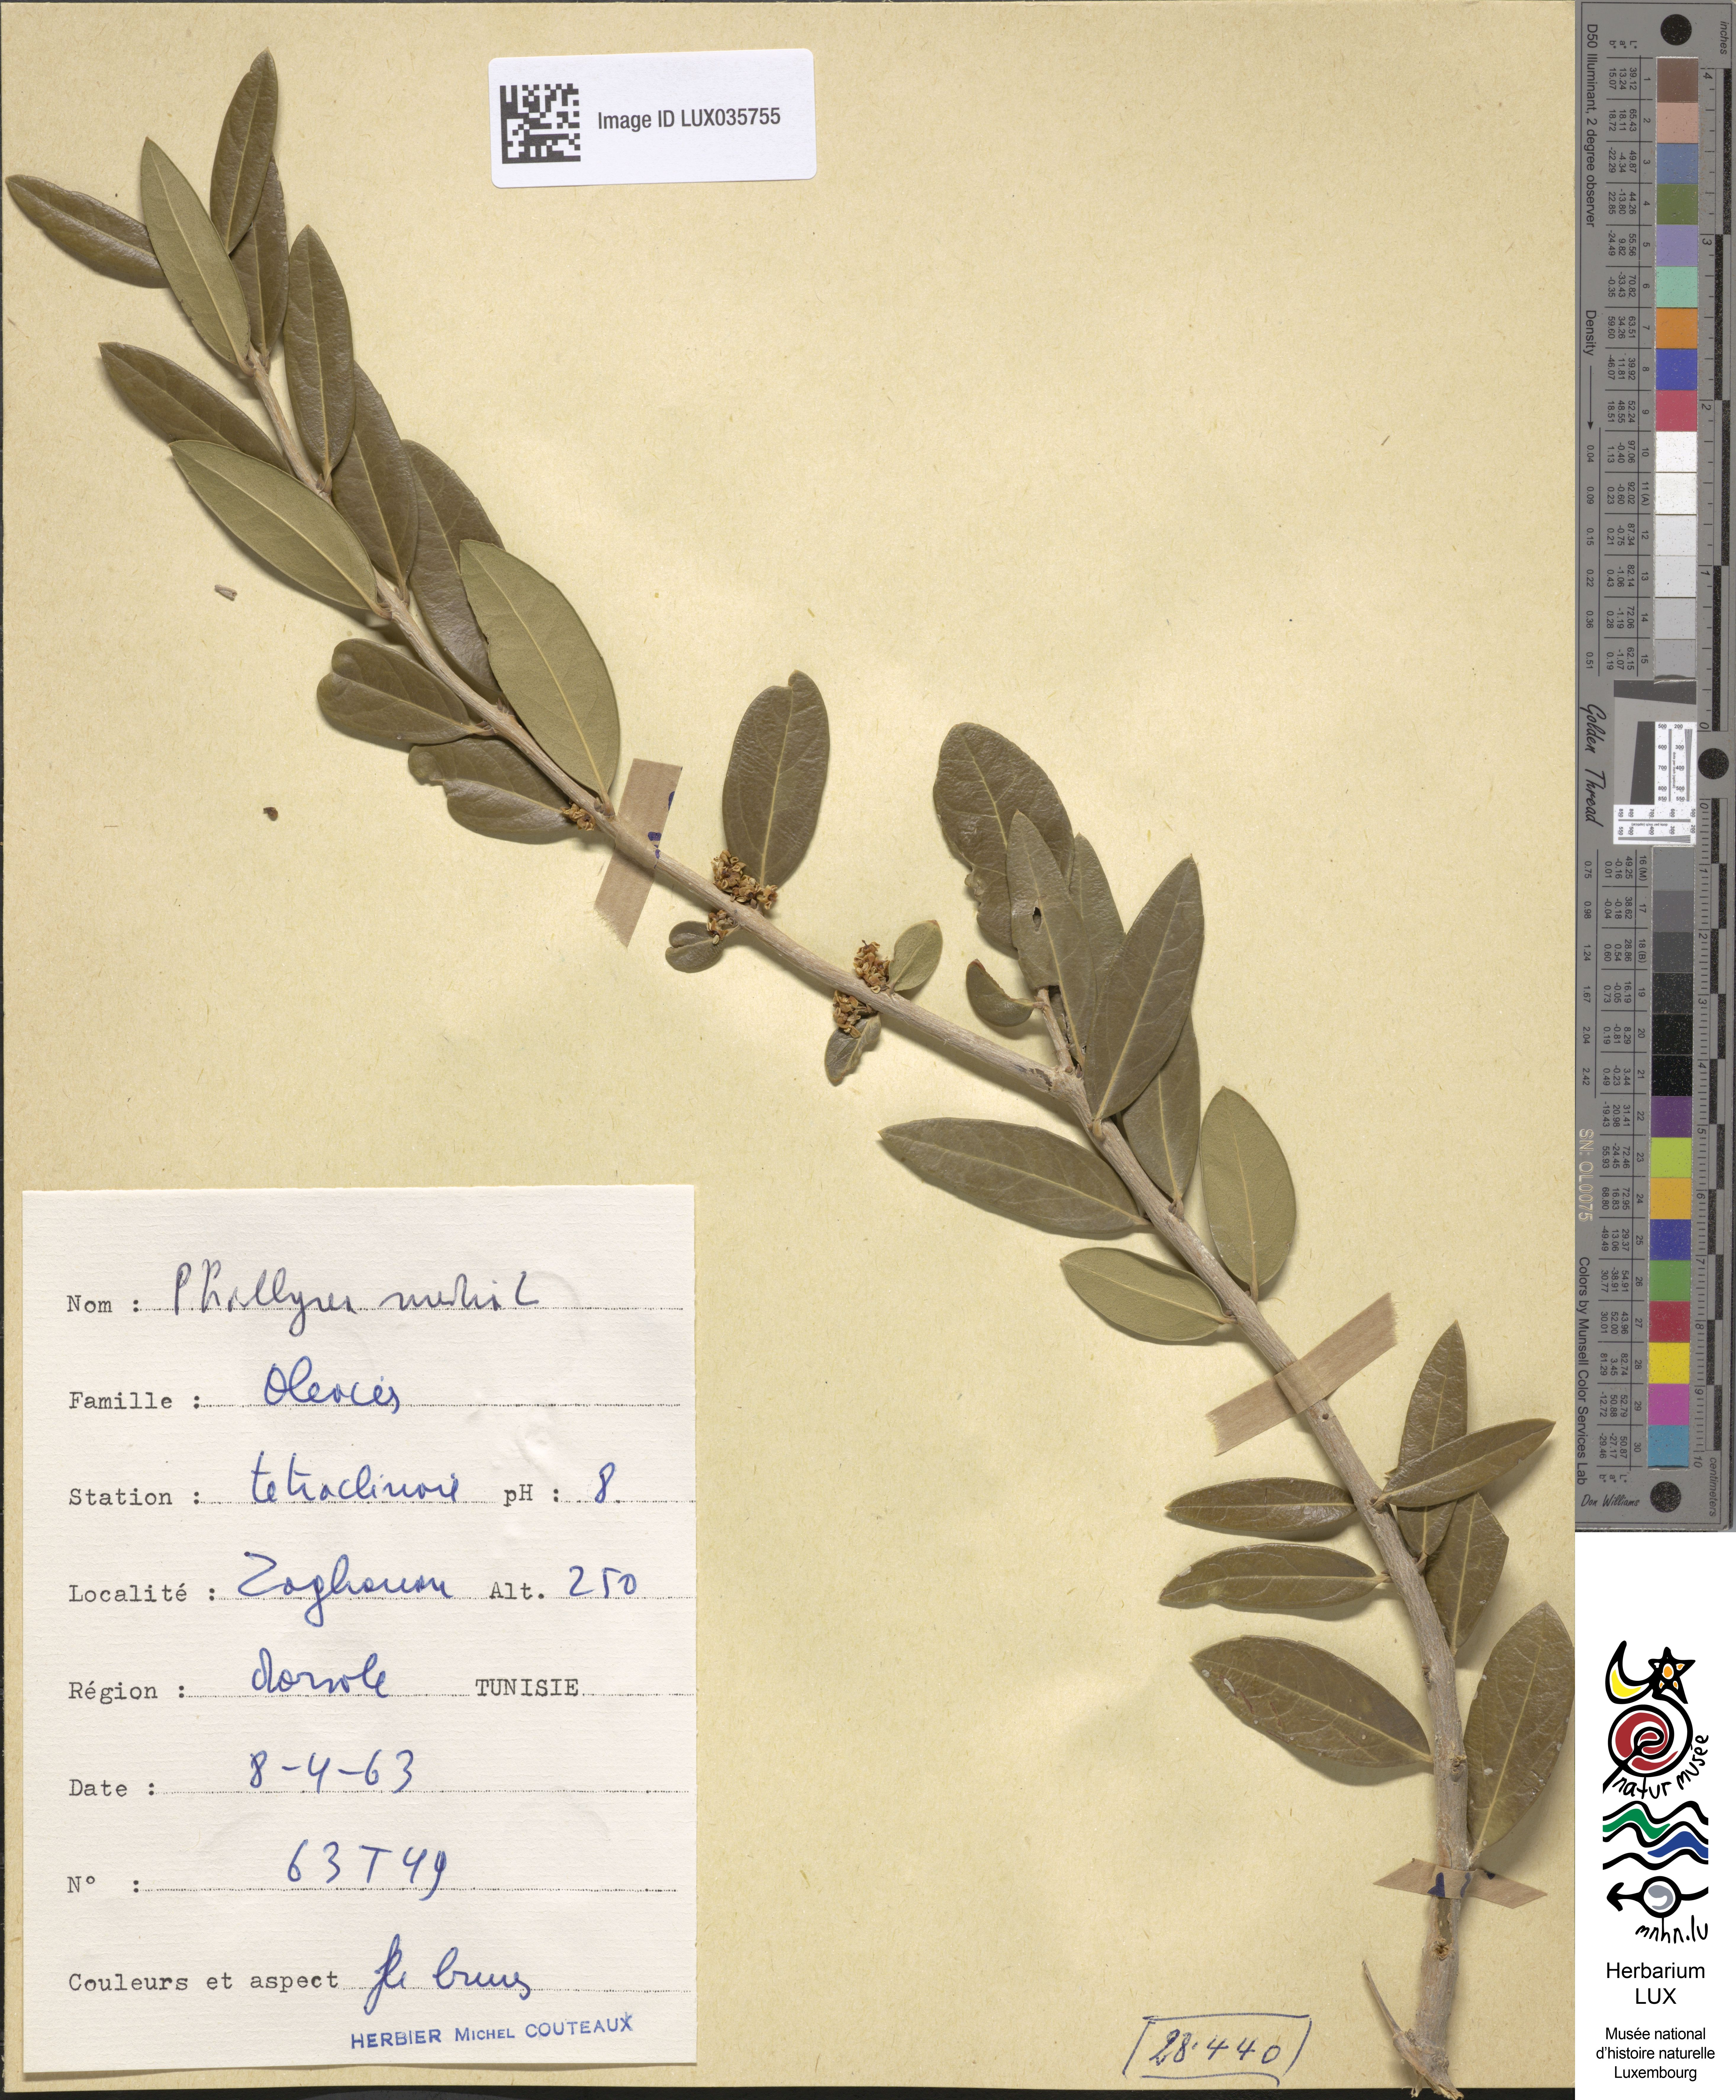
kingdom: Plantae
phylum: Tracheophyta
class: Magnoliopsida
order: Lamiales
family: Oleaceae
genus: Phillyrea
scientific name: Phillyrea latifolia
